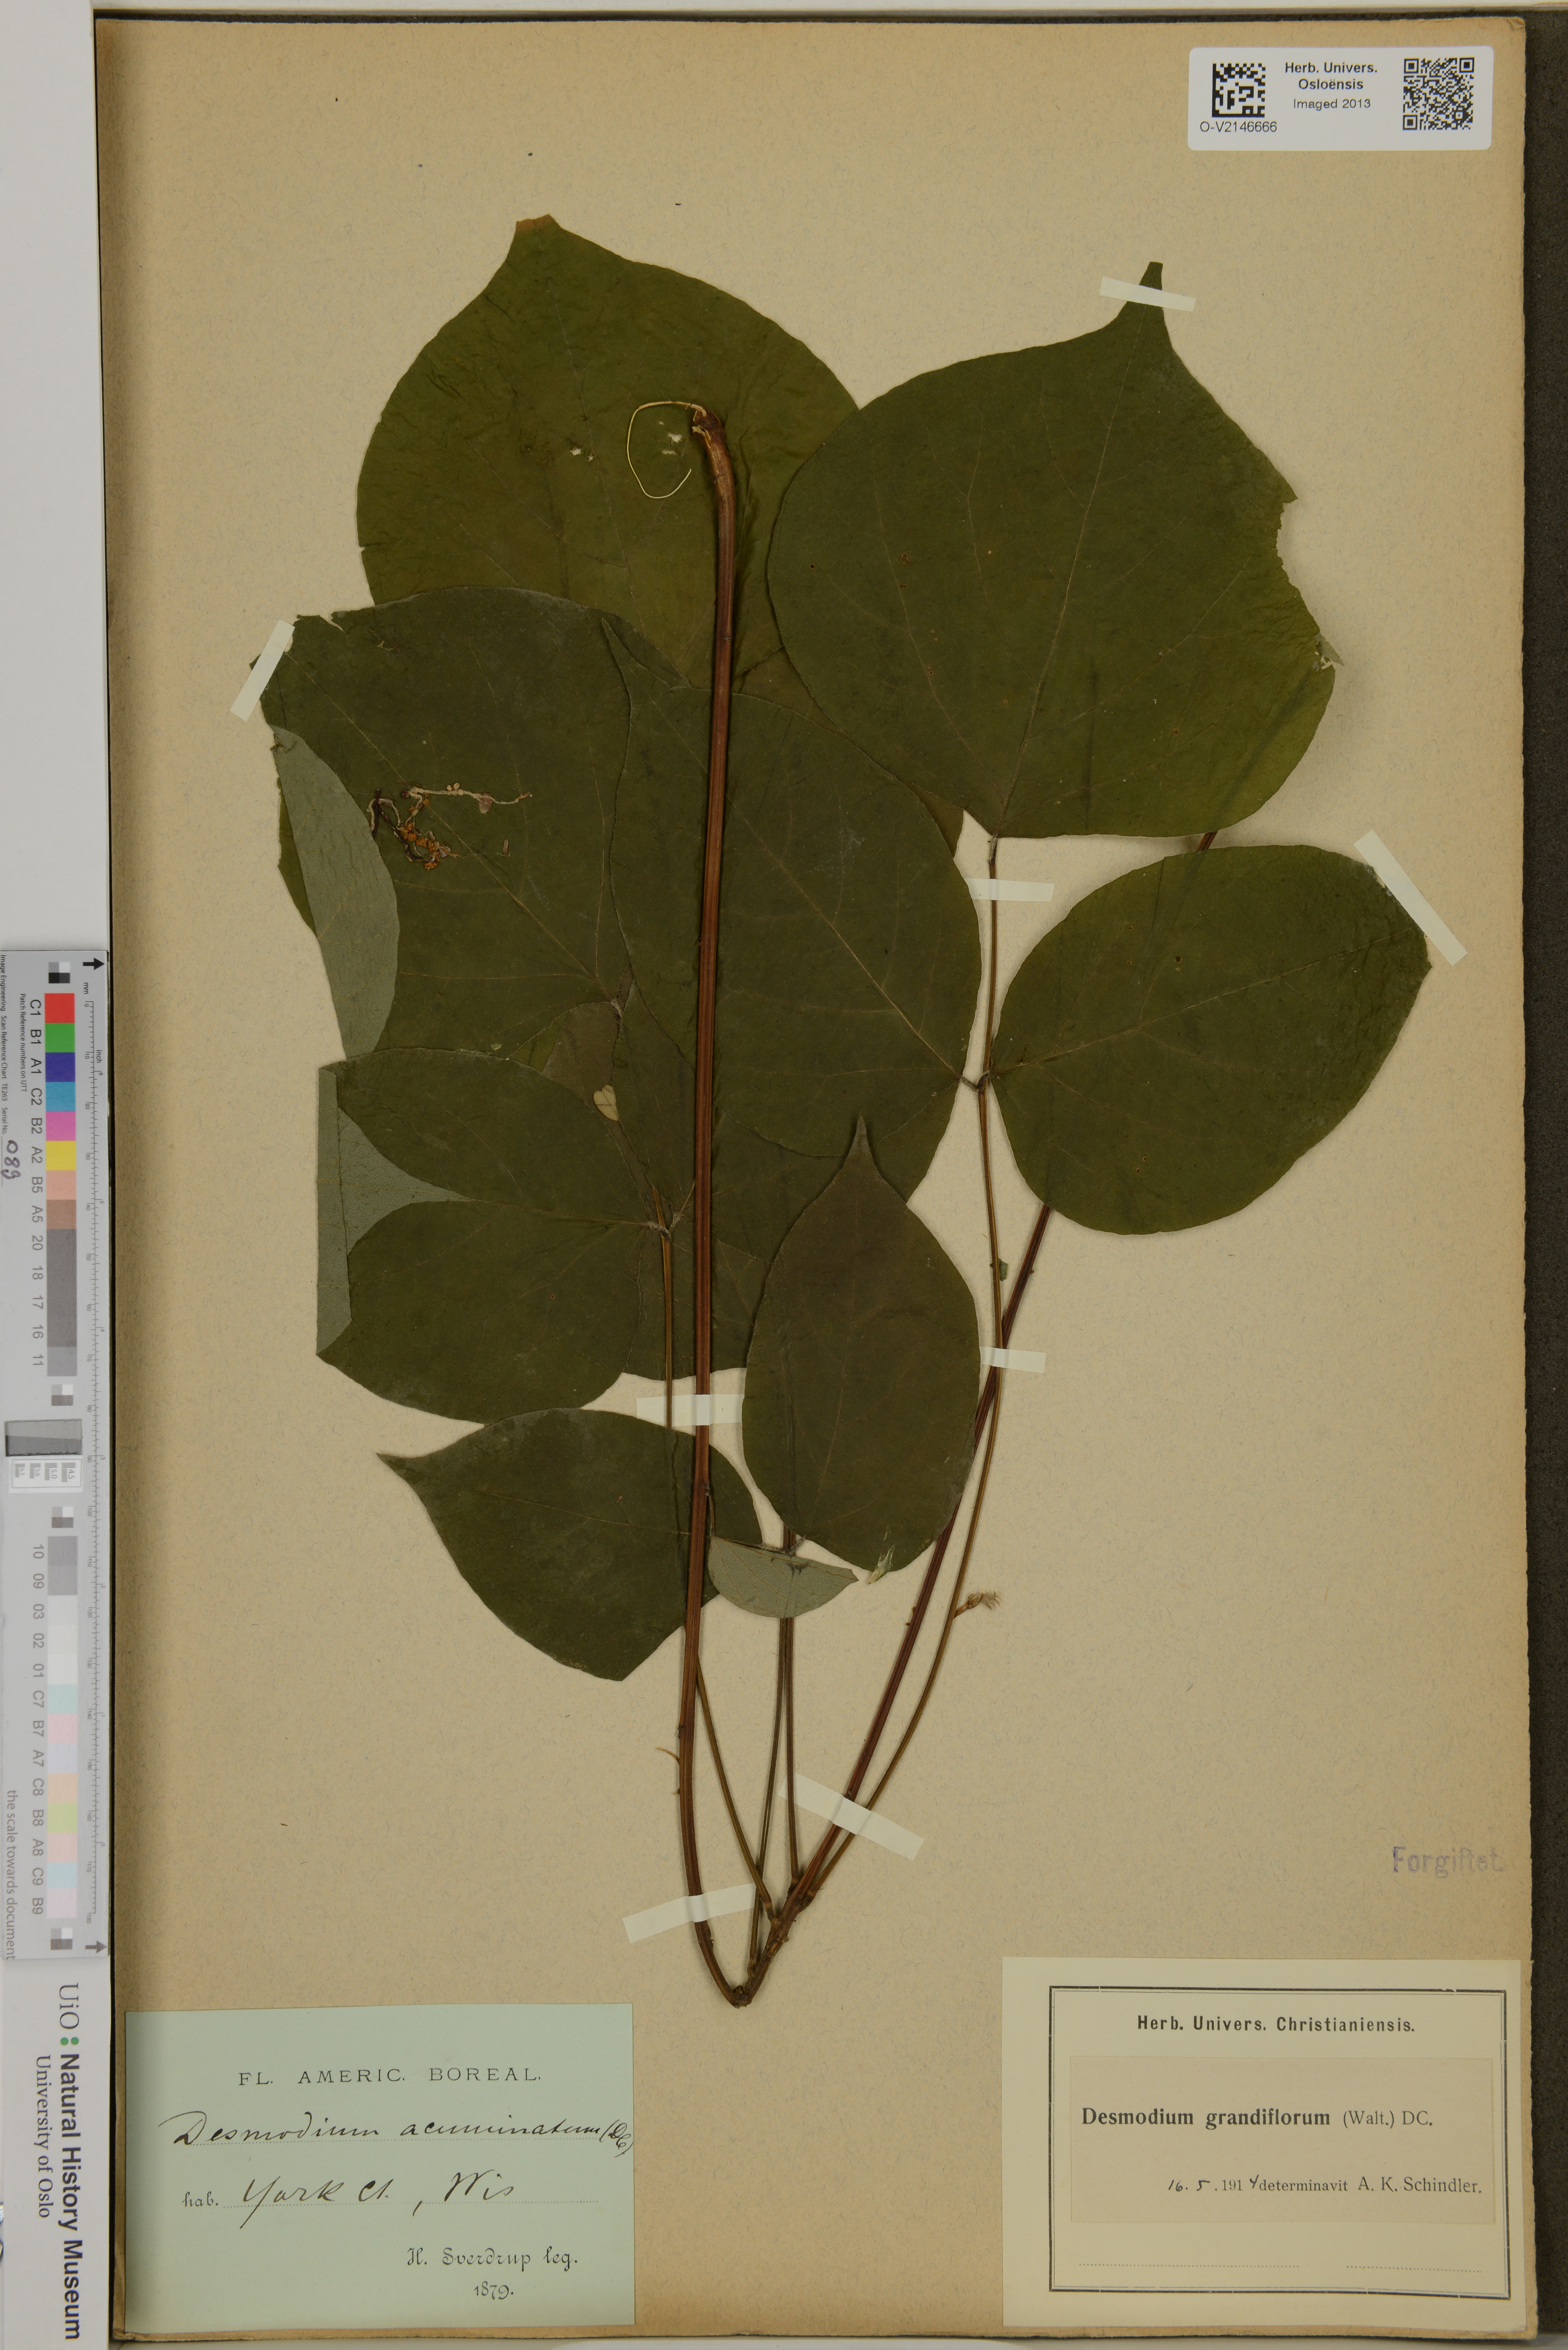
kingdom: Plantae
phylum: Tracheophyta
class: Magnoliopsida
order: Fabales
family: Fabaceae
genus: Hylodesmum
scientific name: Hylodesmum glutinosum
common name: Clustered-leaved tick-trefoil
